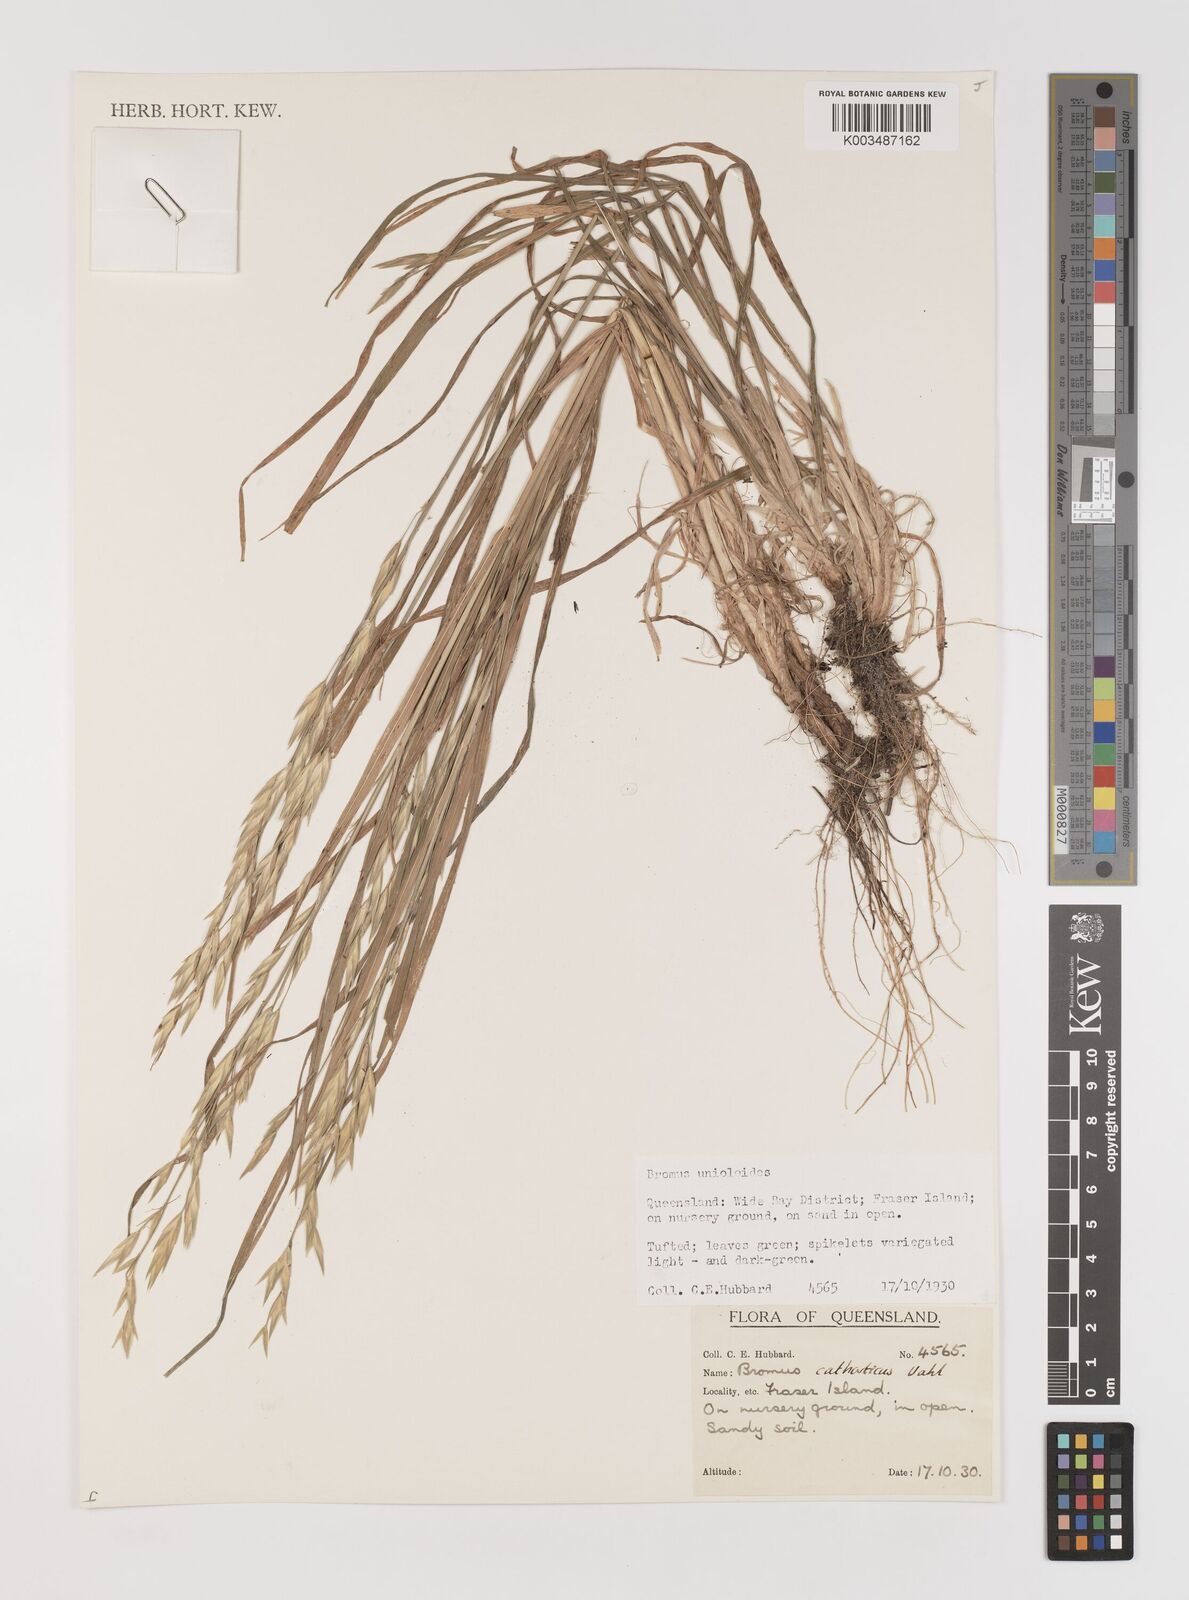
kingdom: Plantae
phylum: Tracheophyta
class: Liliopsida
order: Poales
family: Poaceae
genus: Bromus
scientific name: Bromus catharticus
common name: Rescuegrass
